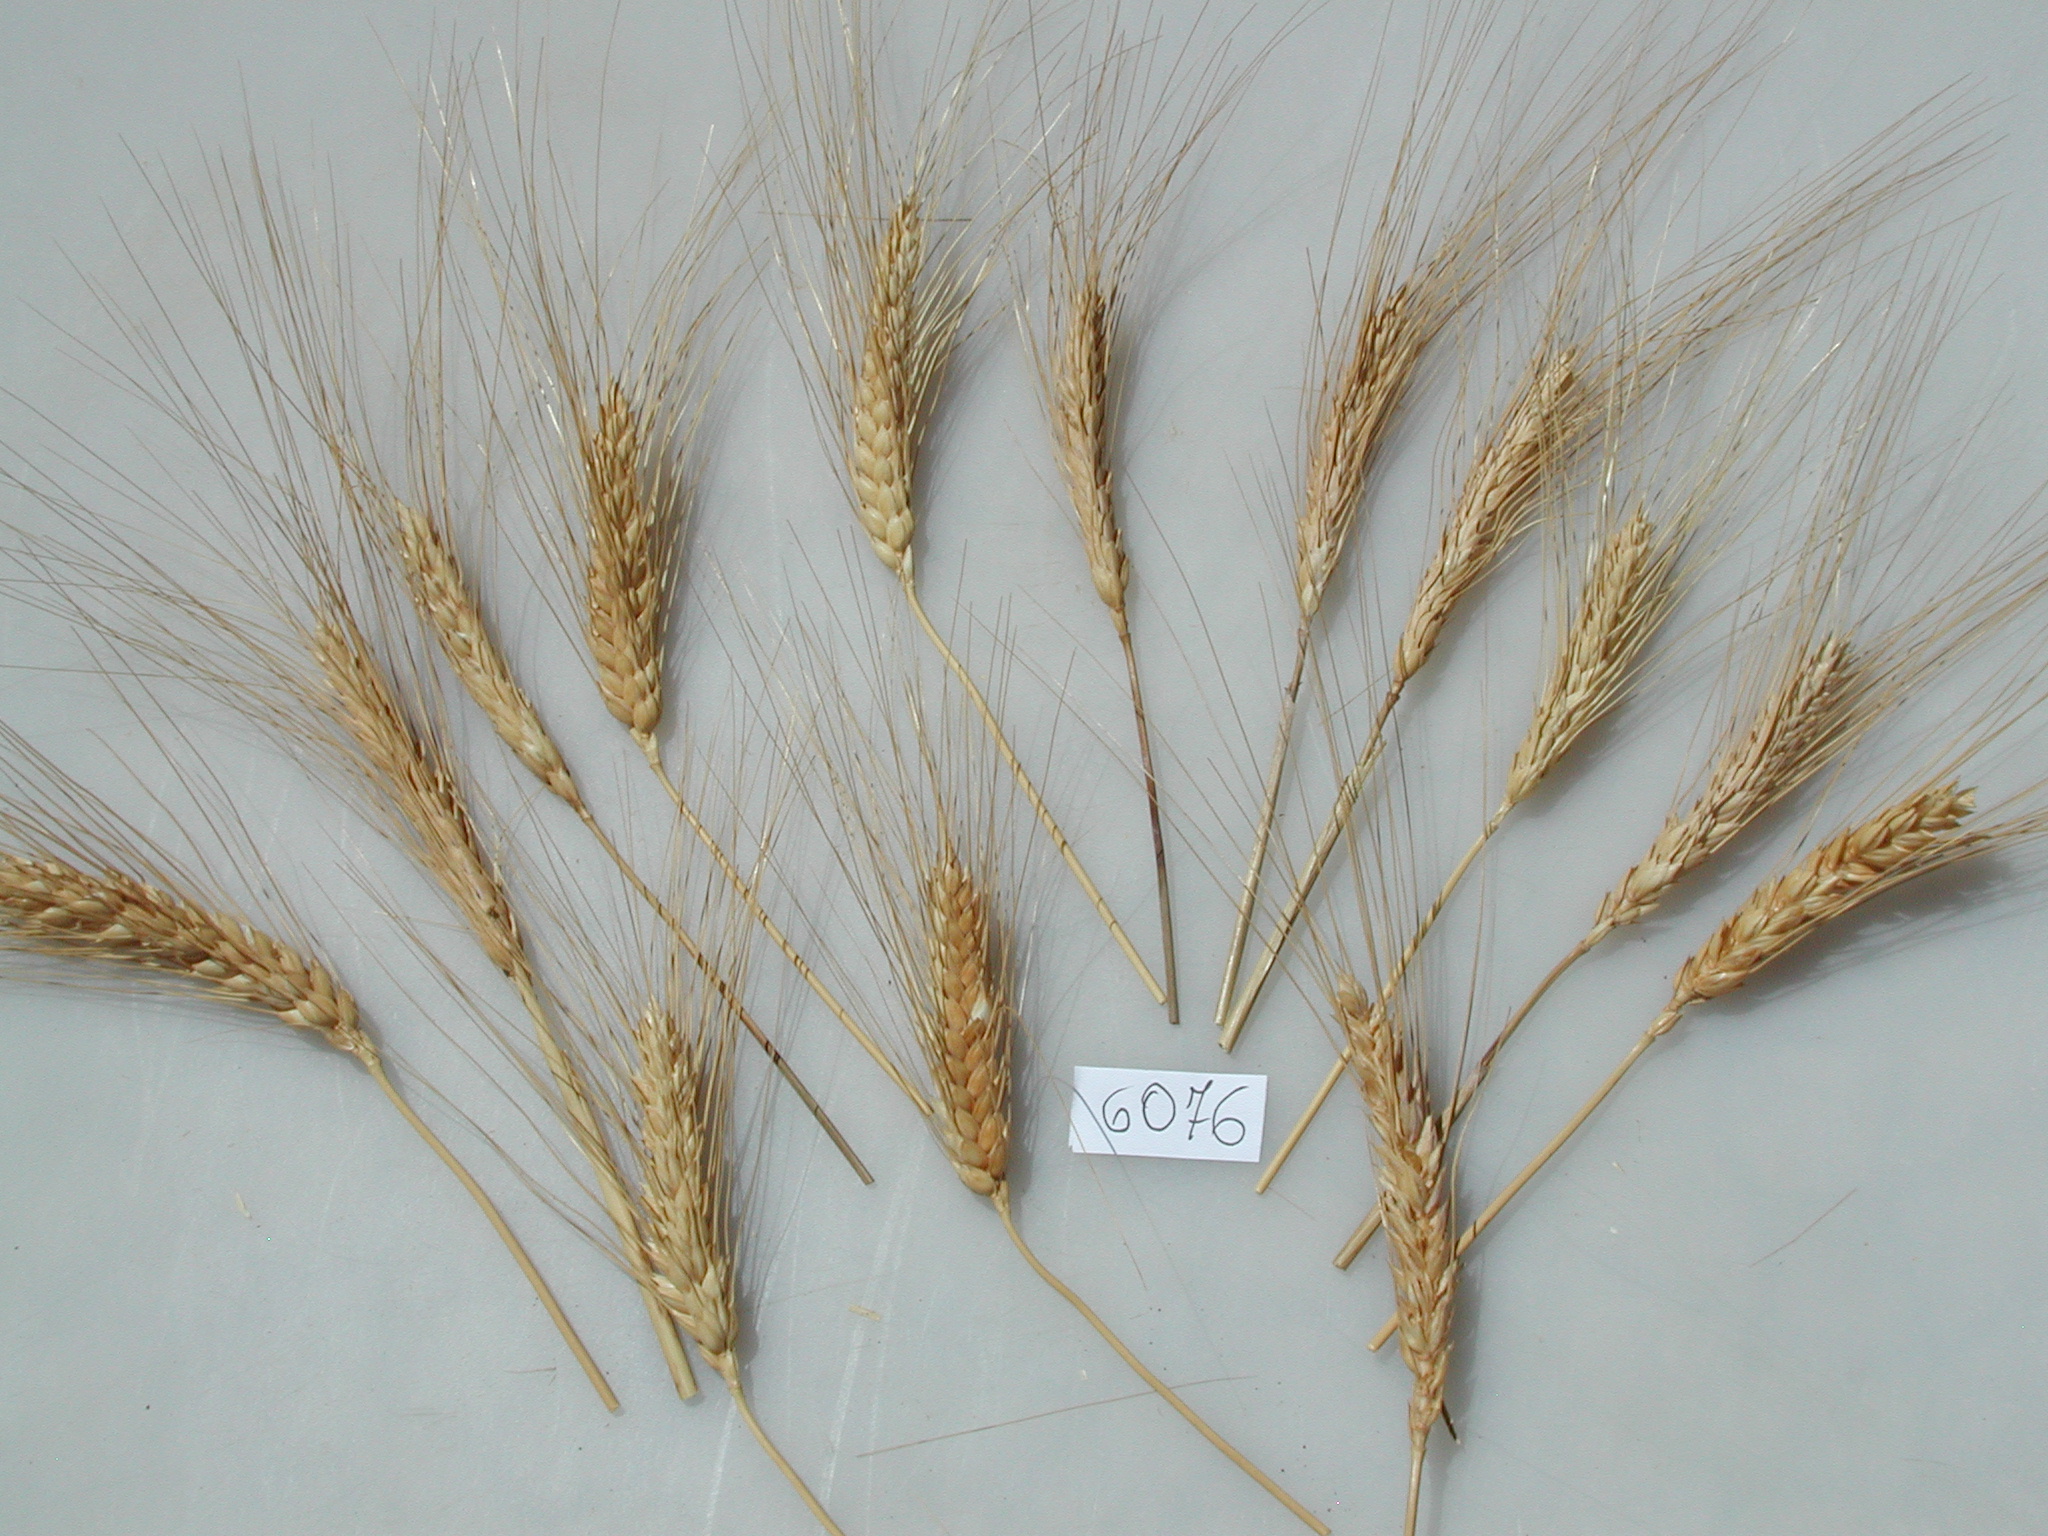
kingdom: Plantae
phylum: Tracheophyta
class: Liliopsida
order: Poales
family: Poaceae
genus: Triticum
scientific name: Triticum turgidum
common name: Wheat
